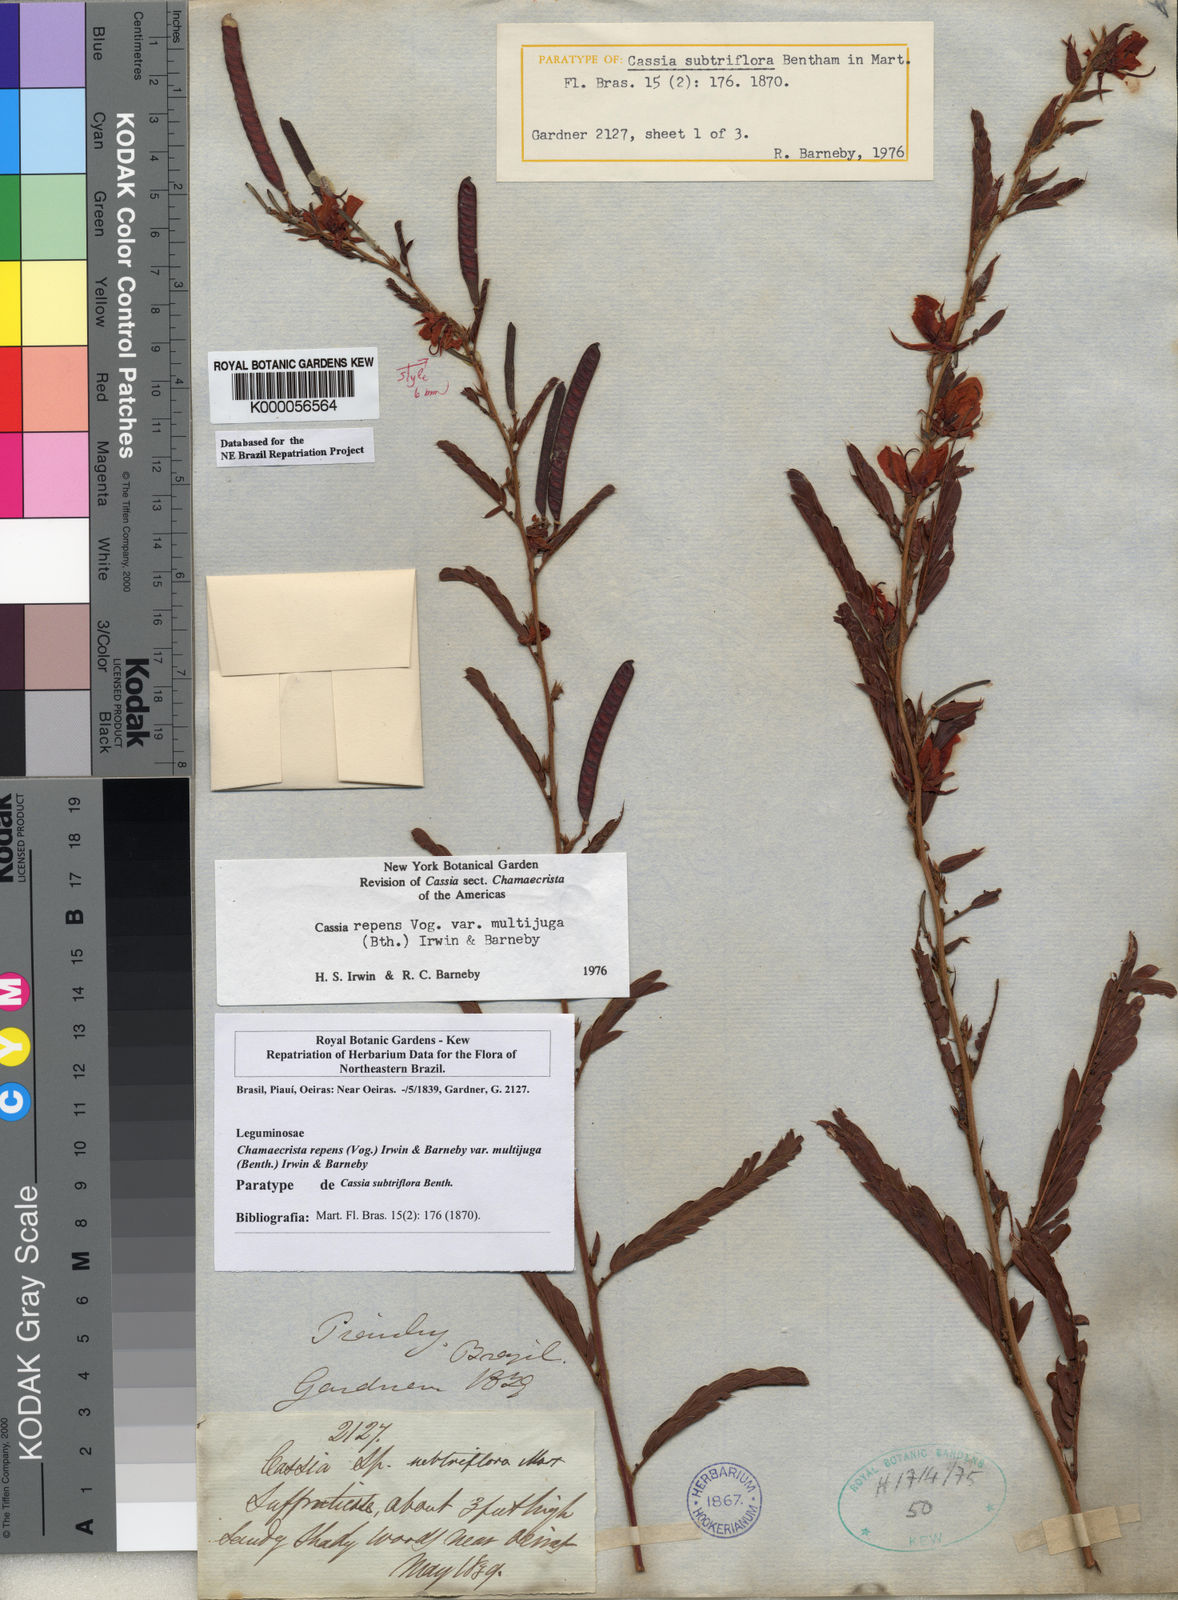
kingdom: Plantae
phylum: Tracheophyta
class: Magnoliopsida
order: Fabales
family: Fabaceae
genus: Chamaecrista
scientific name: Chamaecrista repens
